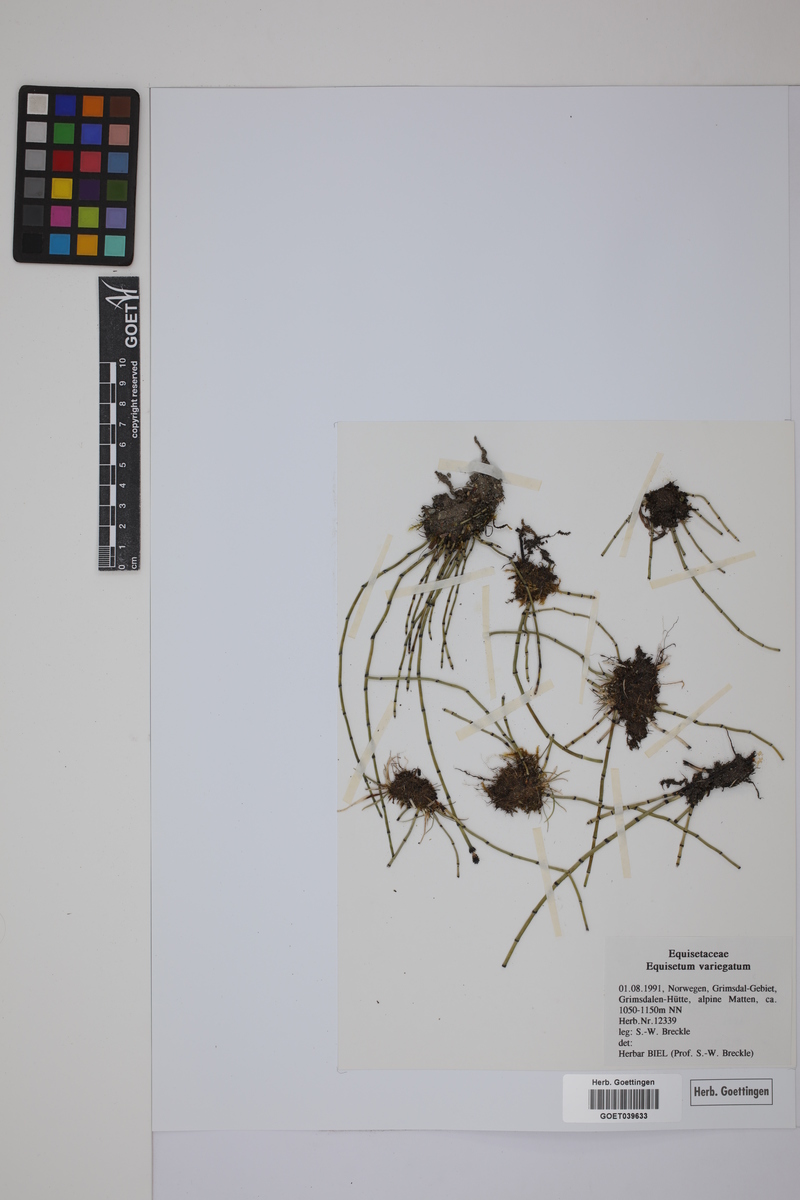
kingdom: Plantae
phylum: Tracheophyta
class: Polypodiopsida
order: Equisetales
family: Equisetaceae
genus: Equisetum
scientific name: Equisetum variegatum
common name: Variegated horsetail
